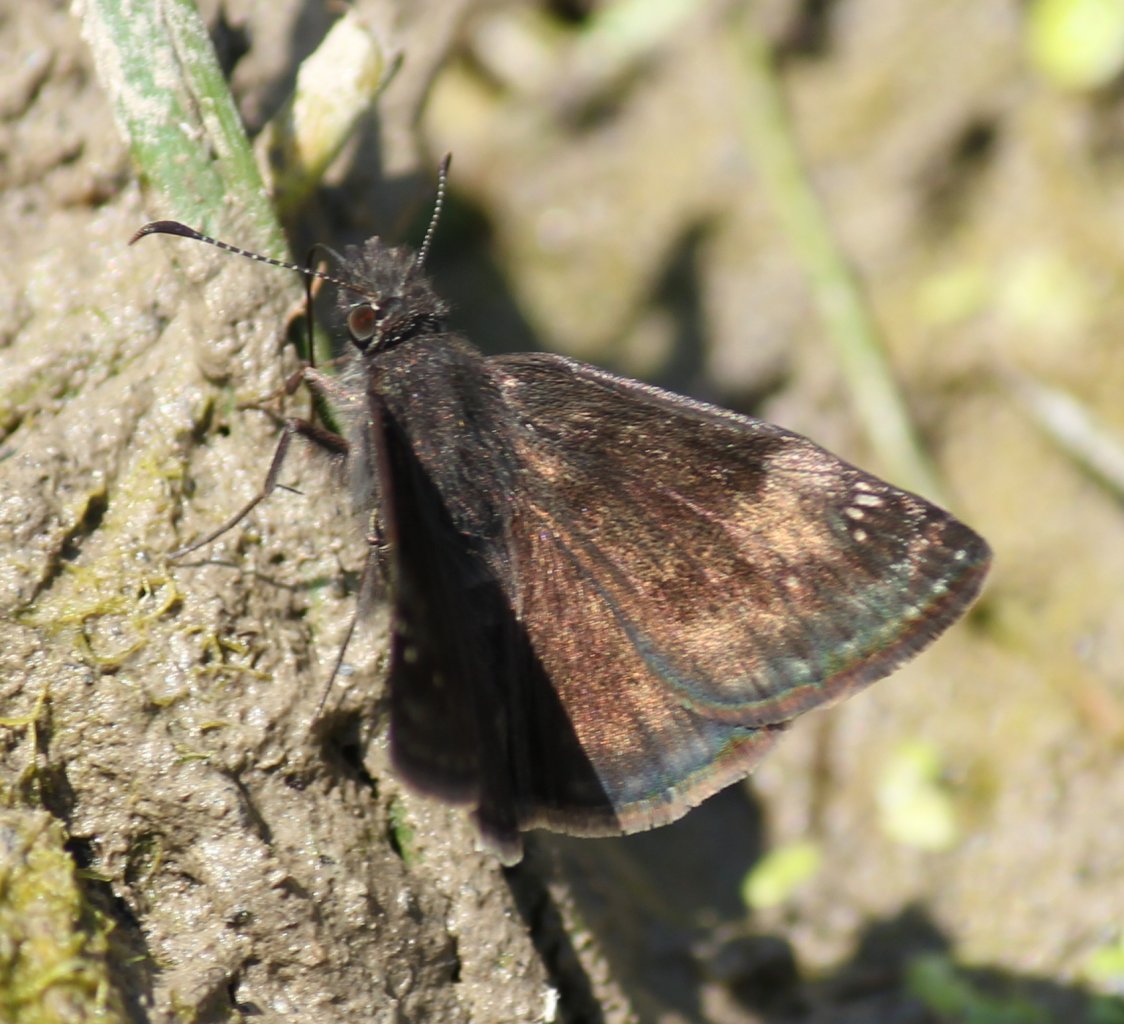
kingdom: Animalia
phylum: Arthropoda
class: Insecta
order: Lepidoptera
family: Hesperiidae
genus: Gesta
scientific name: Gesta
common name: Wild Indigo Duskywing
